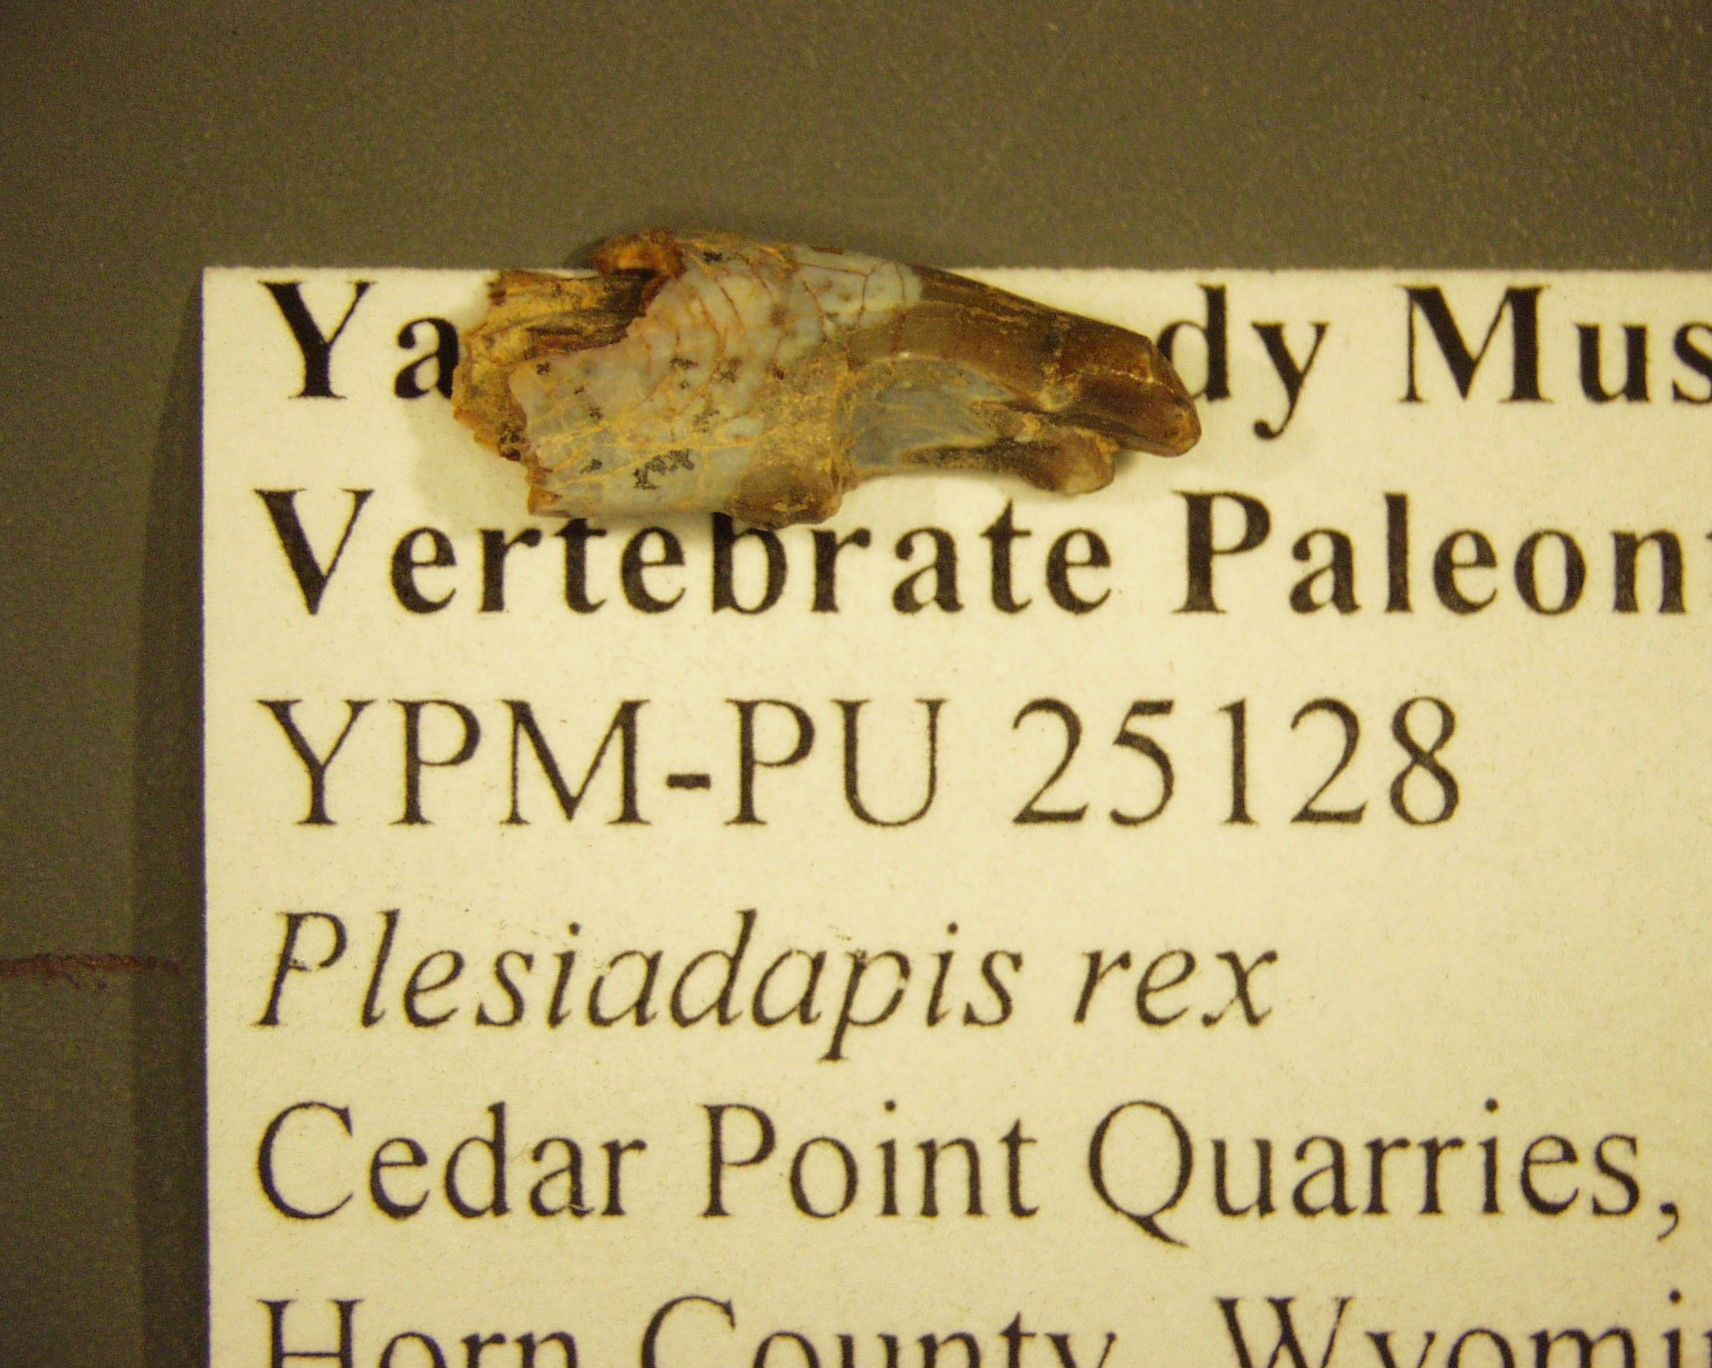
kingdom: Animalia
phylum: Chordata
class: Mammalia
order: Primates
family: Plesiadapidae
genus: Plesiadapis
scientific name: Plesiadapis Tetonius rex
